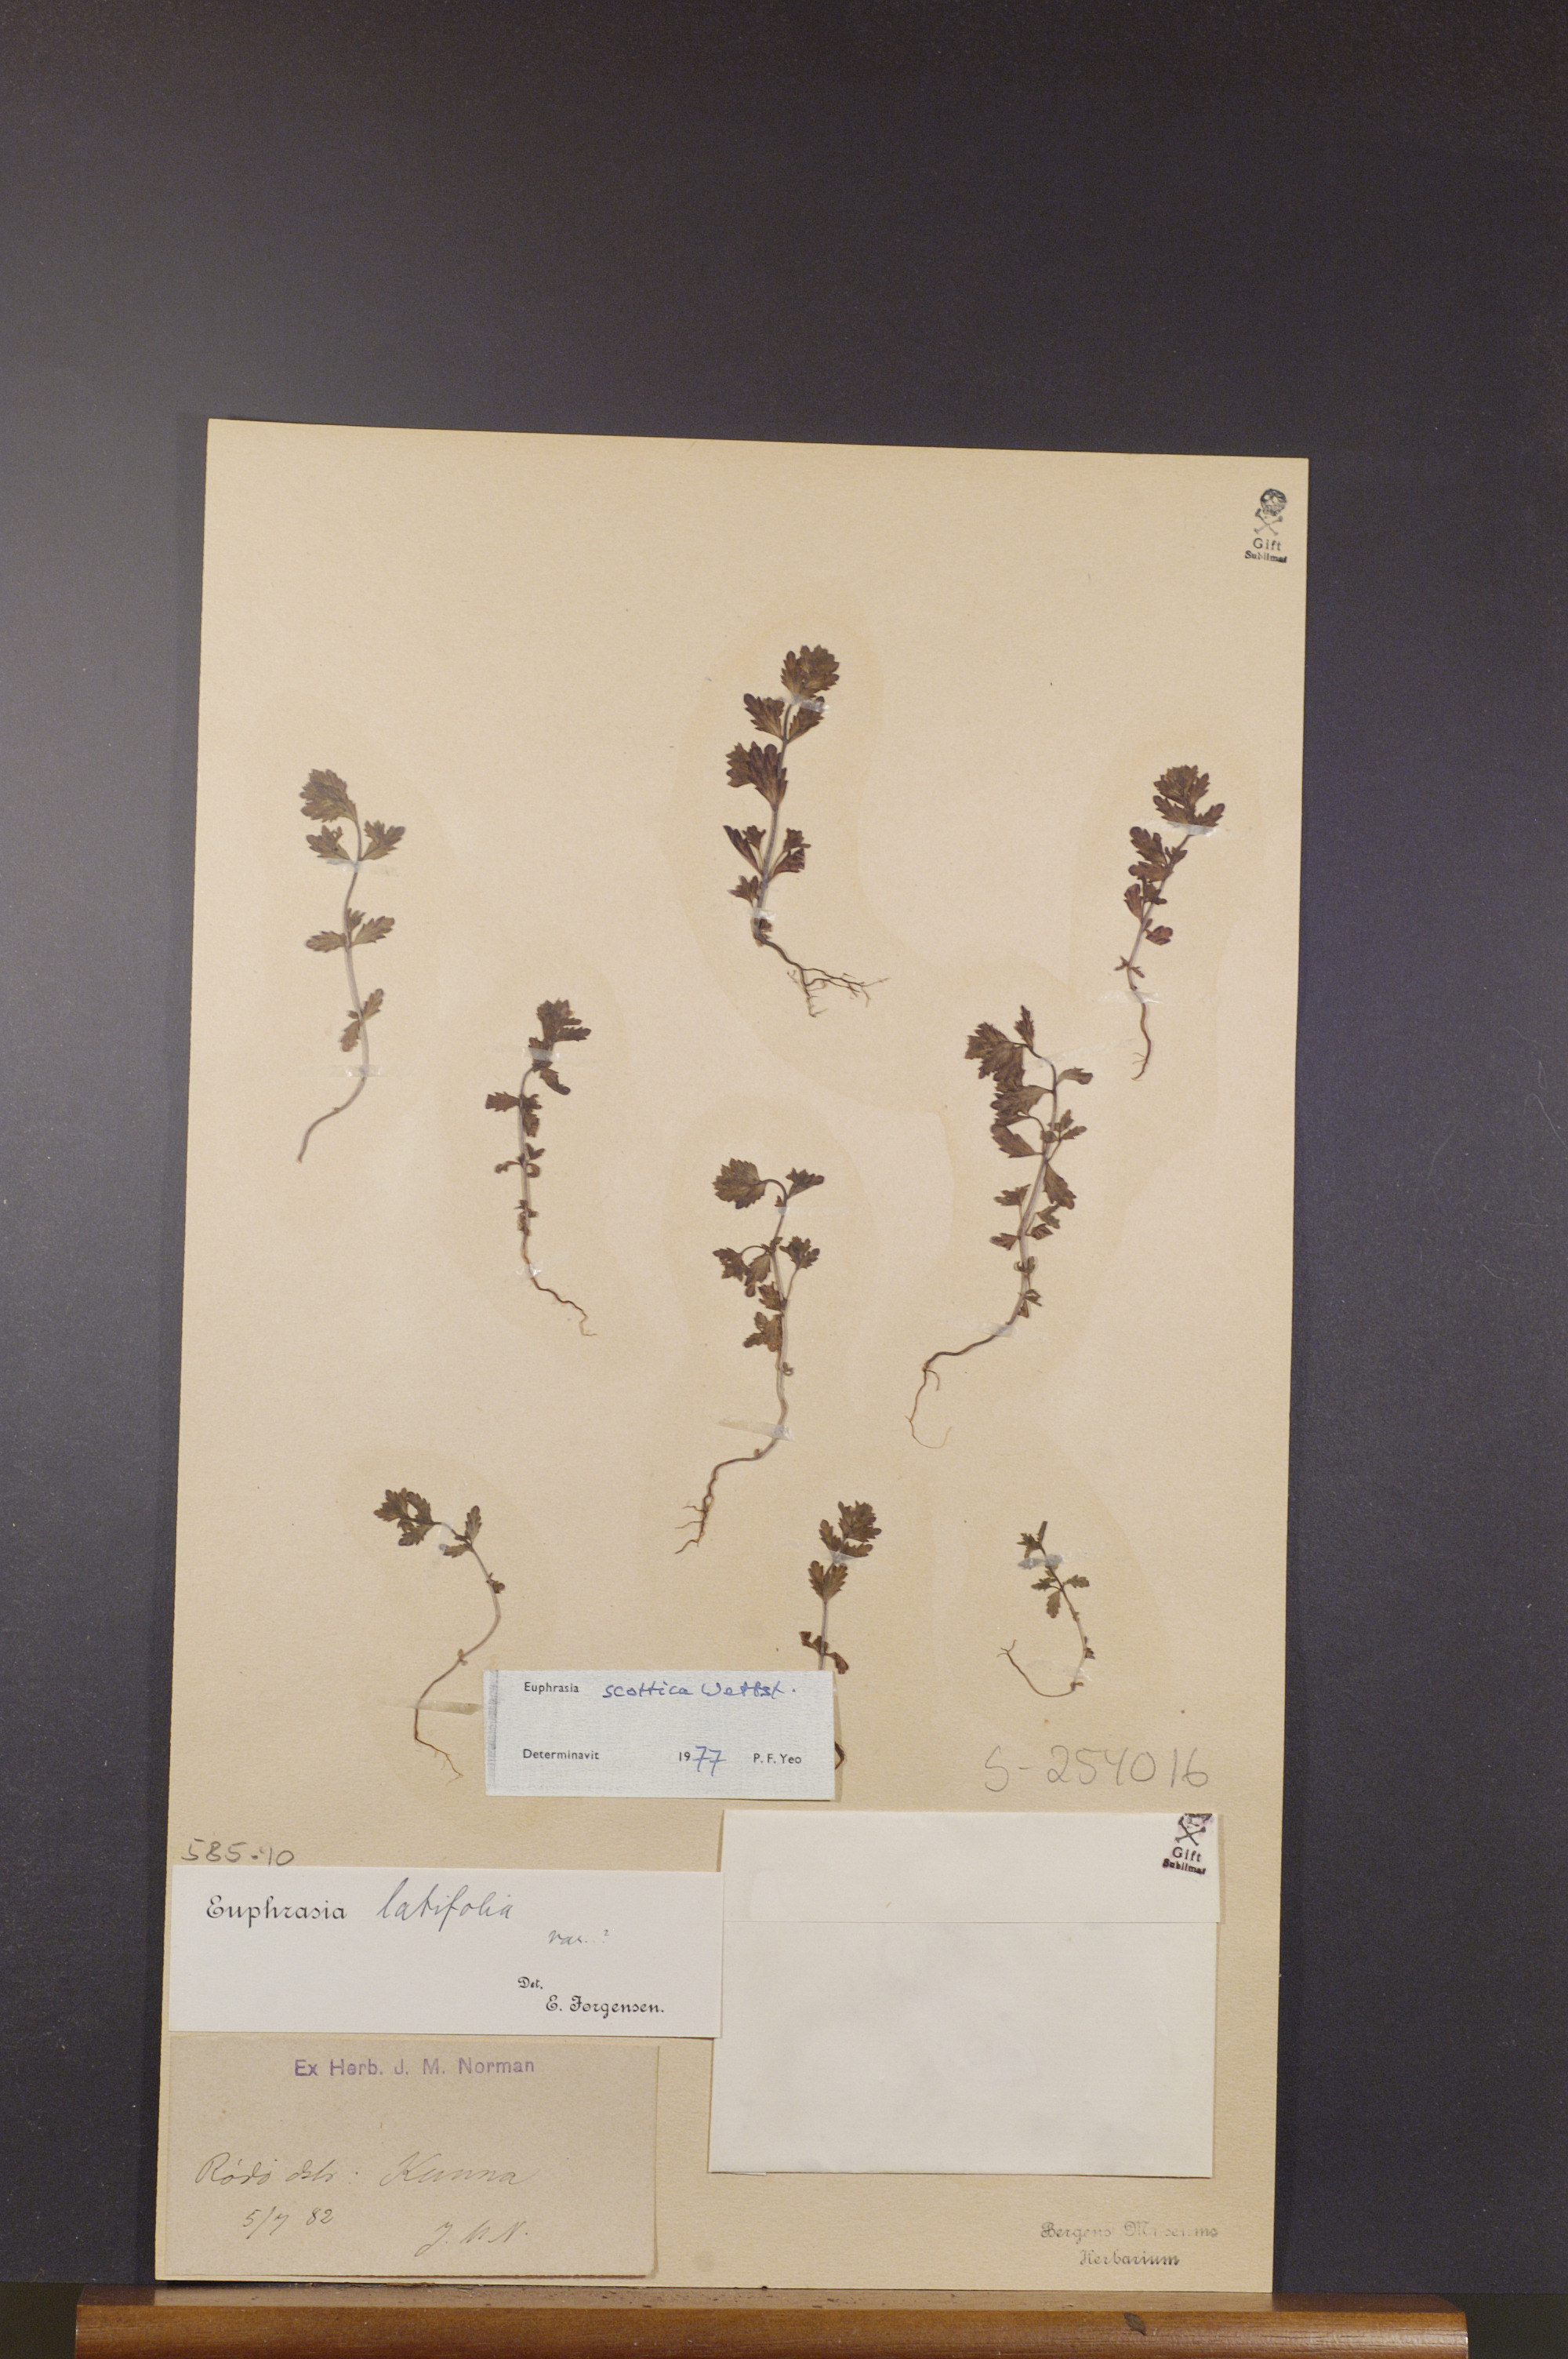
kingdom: Plantae
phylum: Tracheophyta
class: Magnoliopsida
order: Lamiales
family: Orobanchaceae
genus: Euphrasia
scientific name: Euphrasia scottica
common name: Slender scottish eyebright
